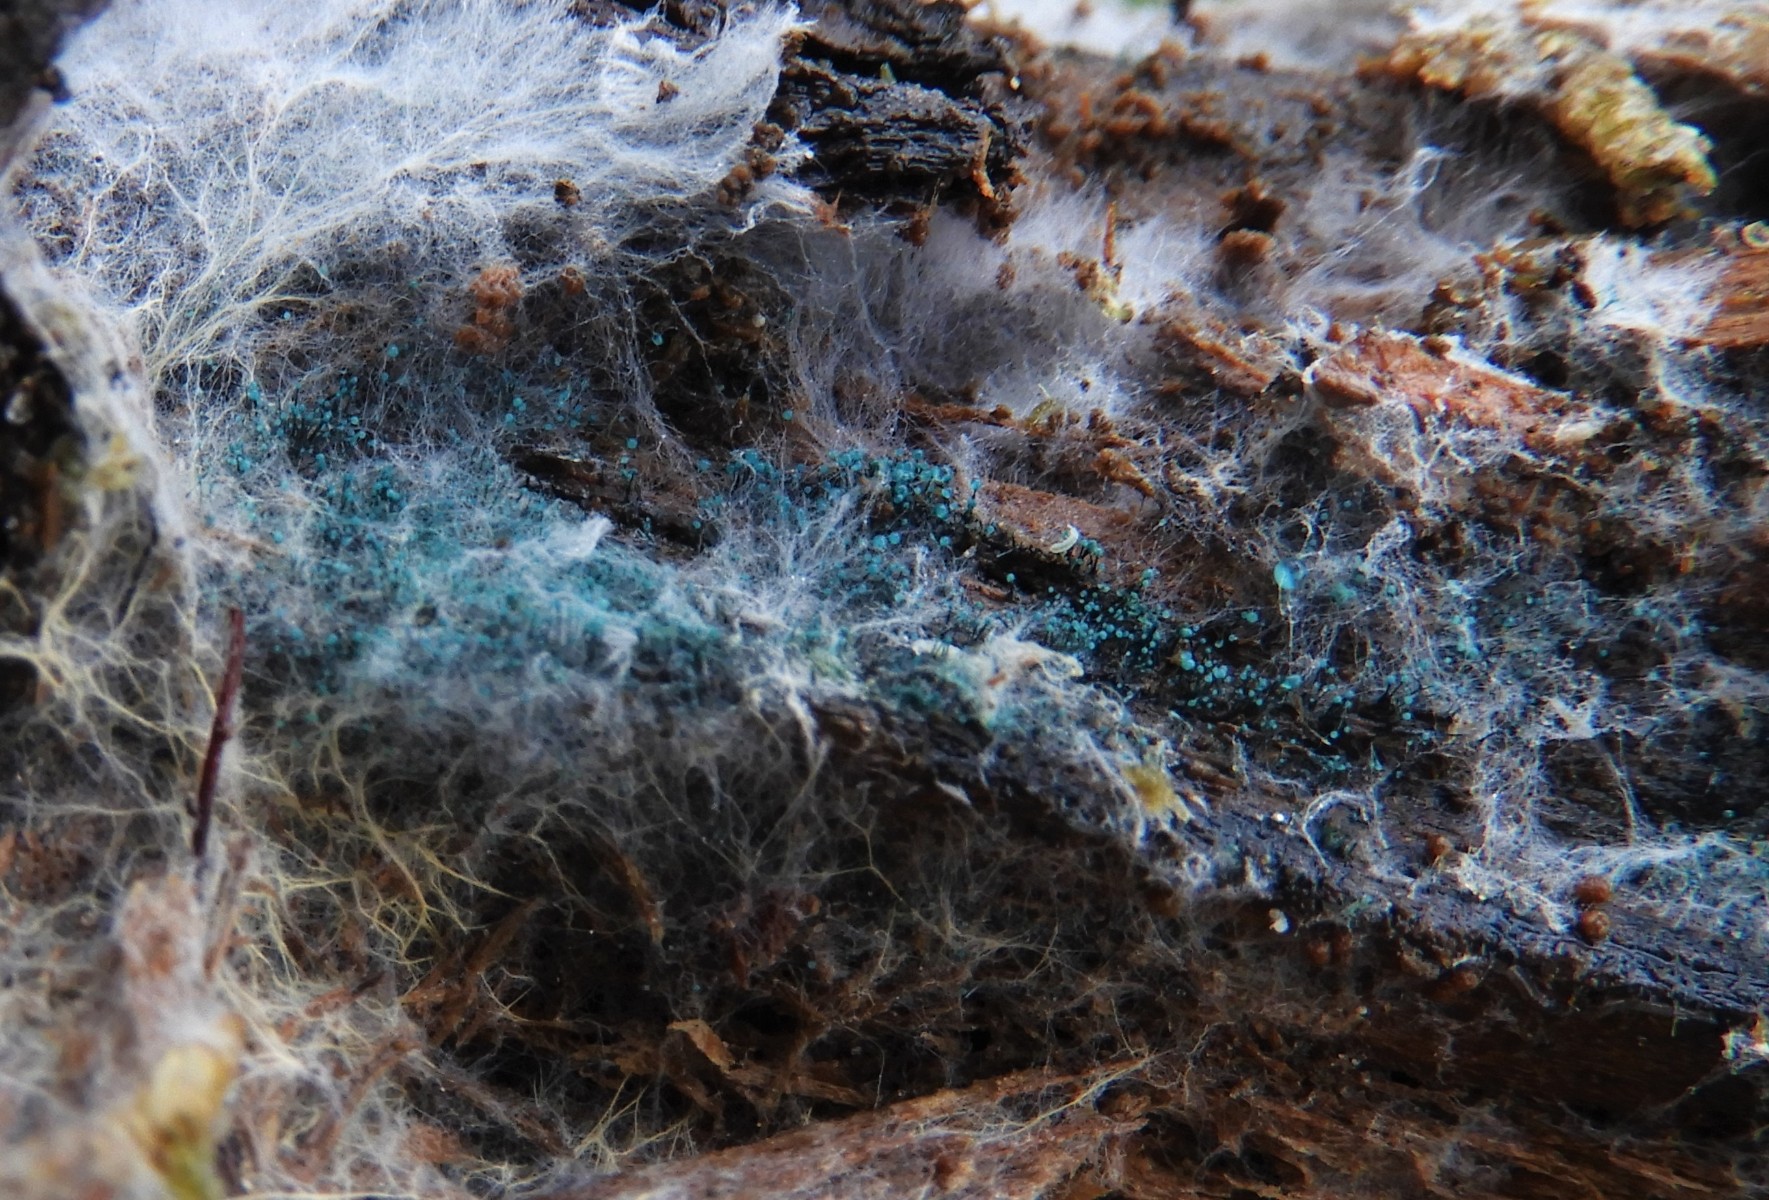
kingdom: Fungi
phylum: Ascomycota
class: Leotiomycetes
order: Leotiales
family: Tympanidaceae
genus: Dendrostilbella
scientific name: Dendrostilbella smaragdina
